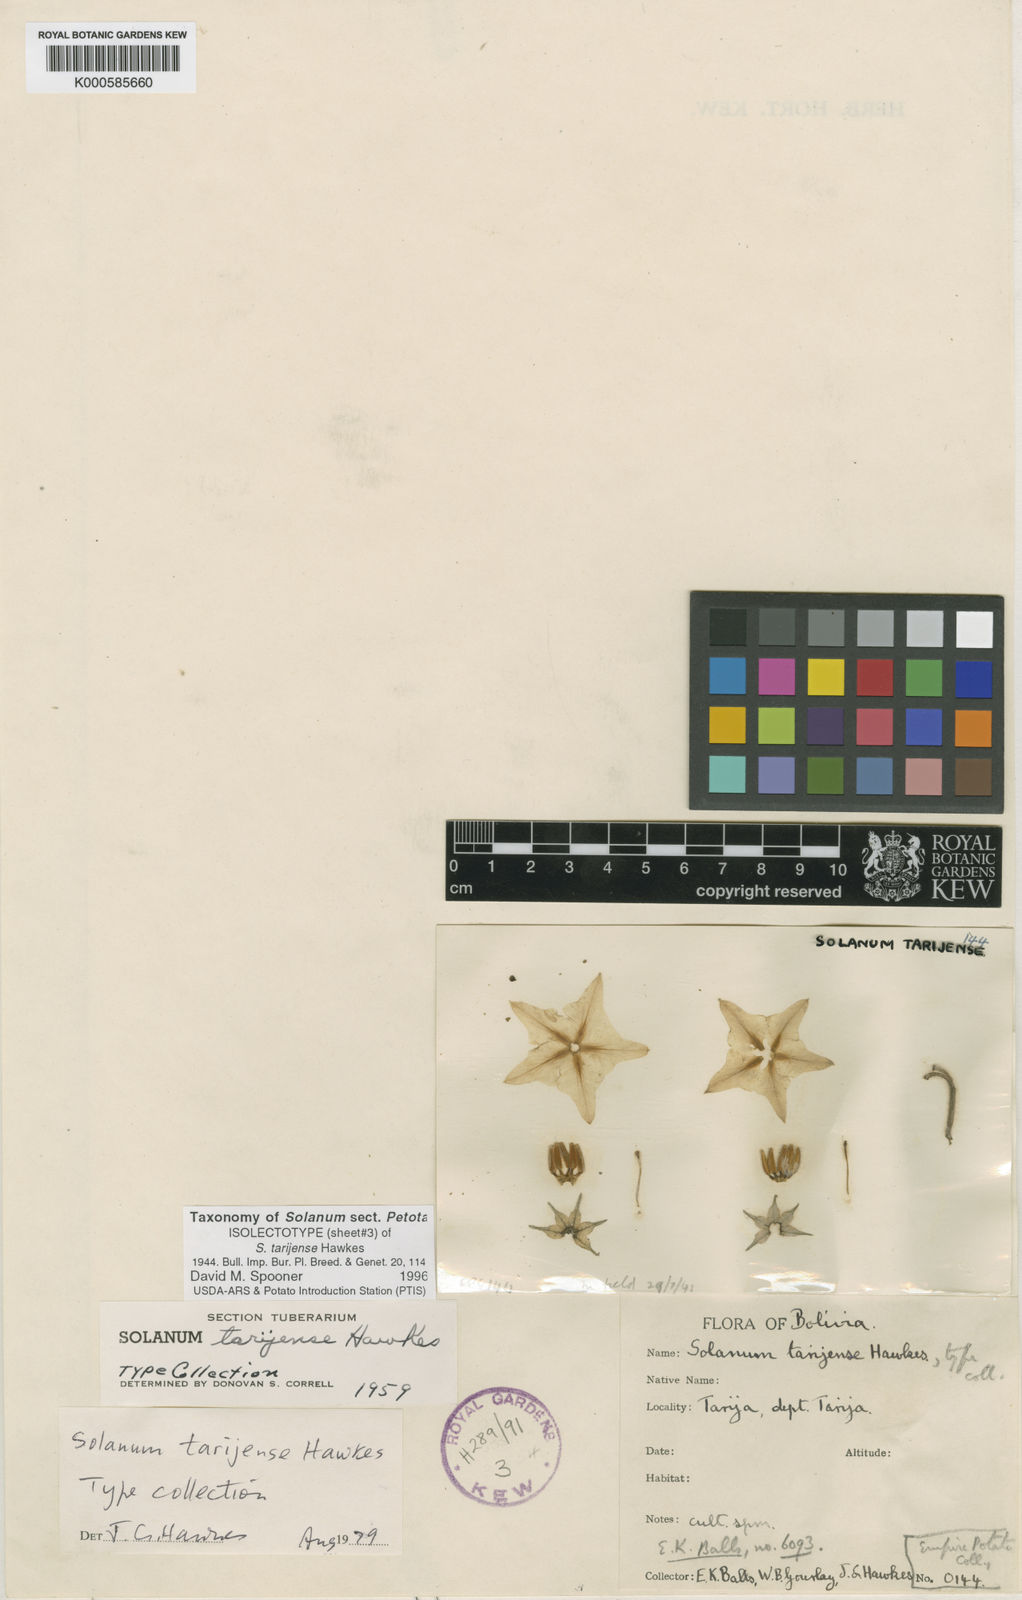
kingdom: Plantae
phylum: Tracheophyta
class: Magnoliopsida
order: Solanales
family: Solanaceae
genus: Solanum
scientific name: Solanum tarijense
